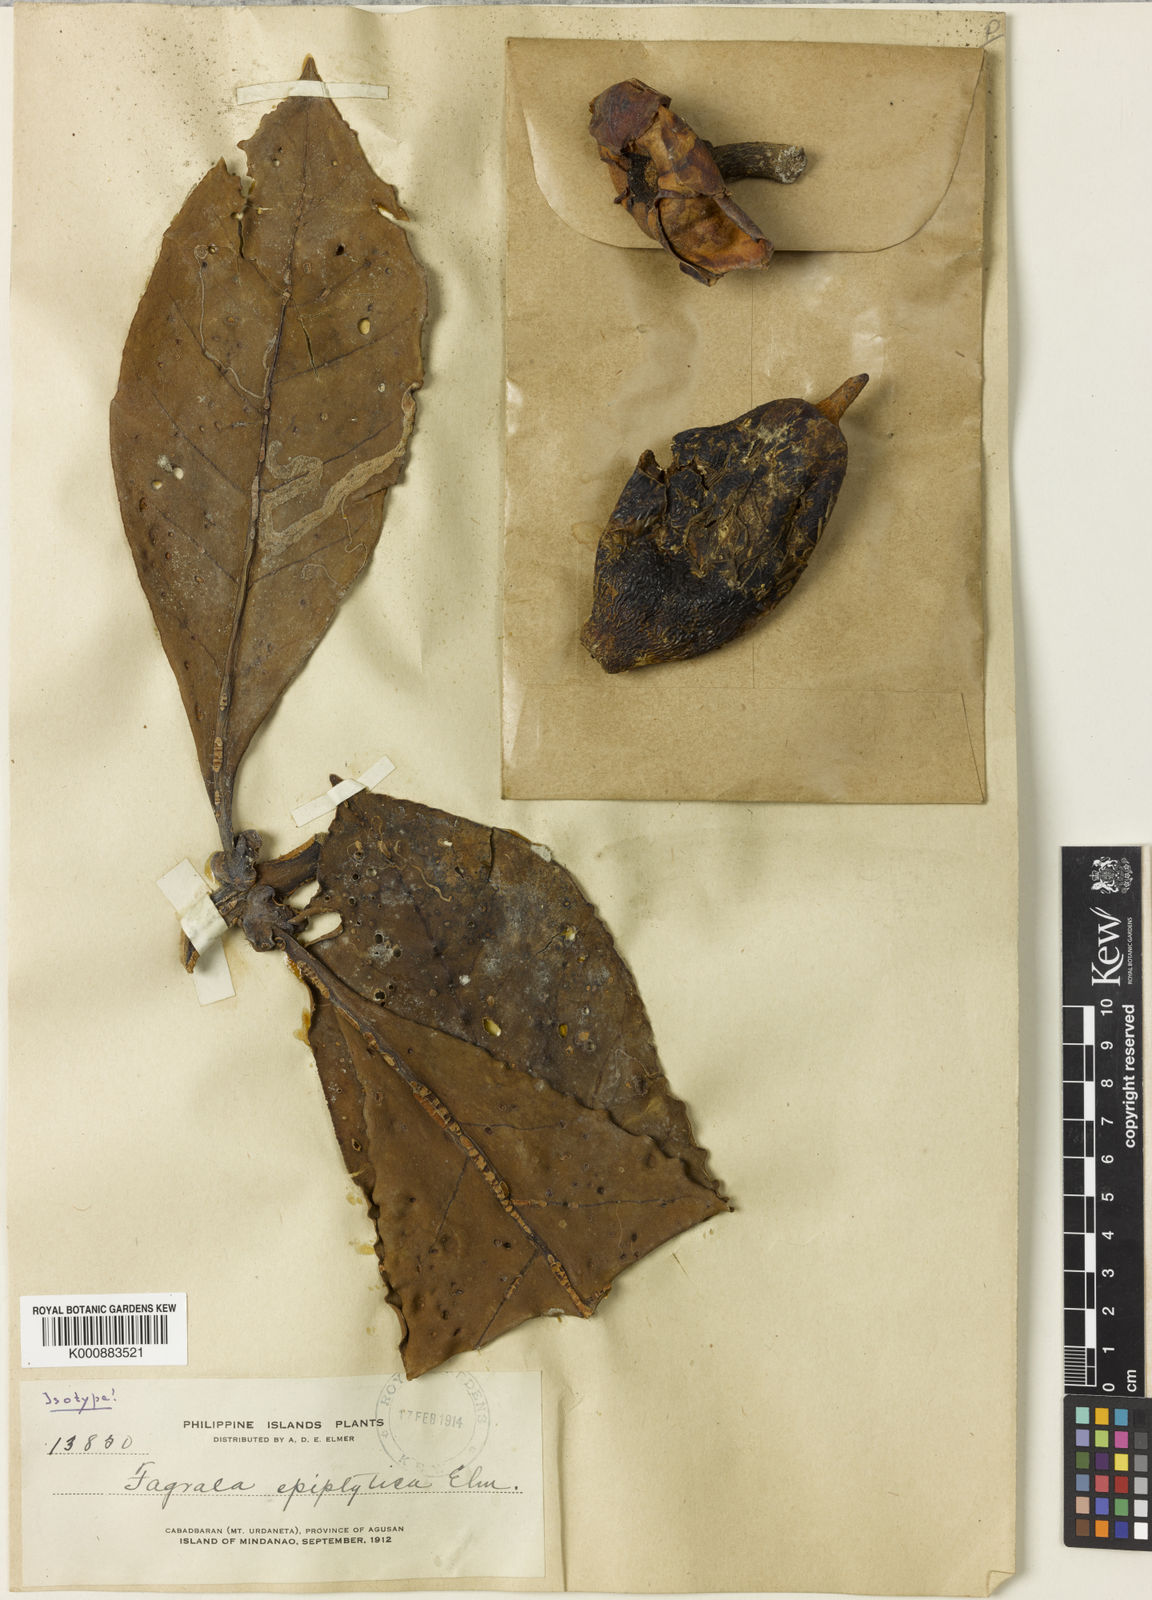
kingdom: Plantae
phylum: Tracheophyta
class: Magnoliopsida
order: Gentianales
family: Gentianaceae
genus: Fagraea
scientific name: Fagraea auriculata
